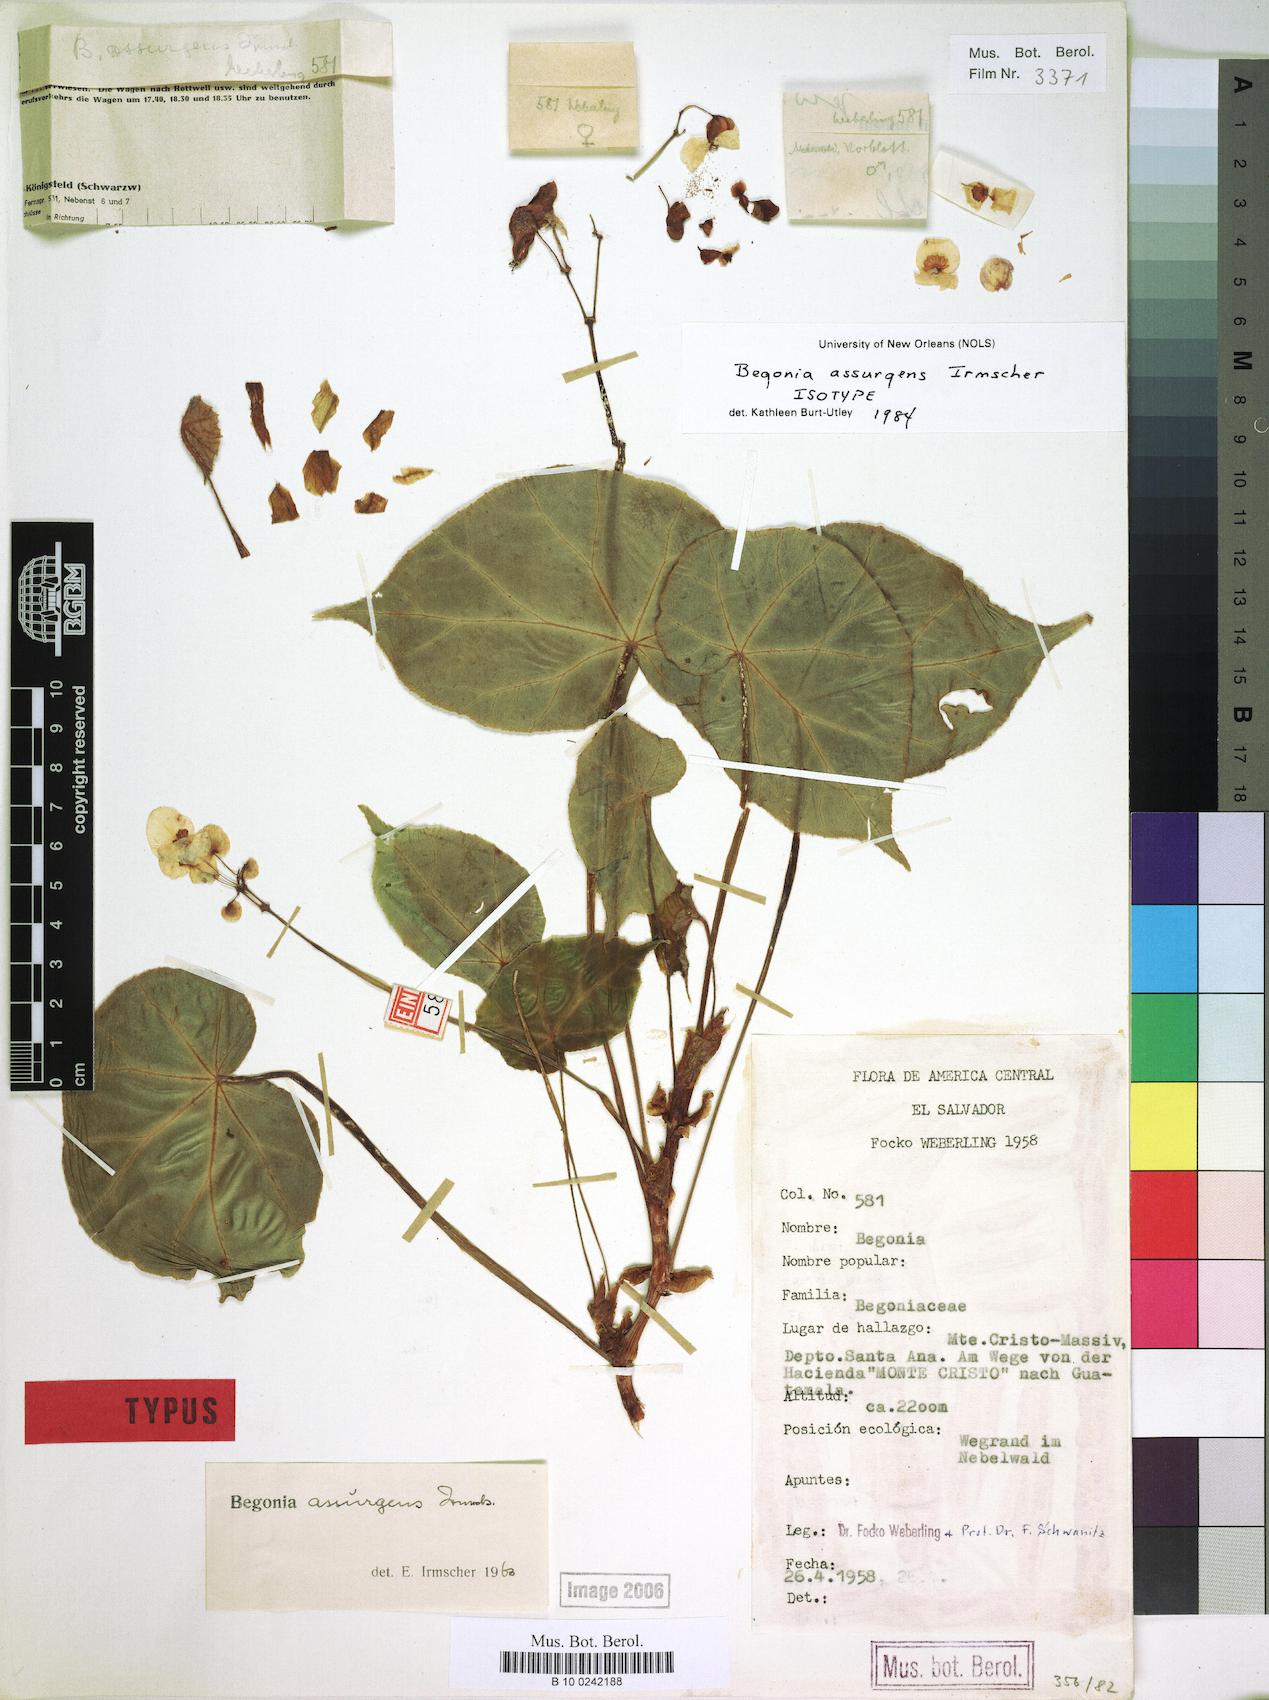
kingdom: Plantae
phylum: Tracheophyta
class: Magnoliopsida
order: Cucurbitales
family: Begoniaceae
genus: Begonia
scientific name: Begonia assurgens
